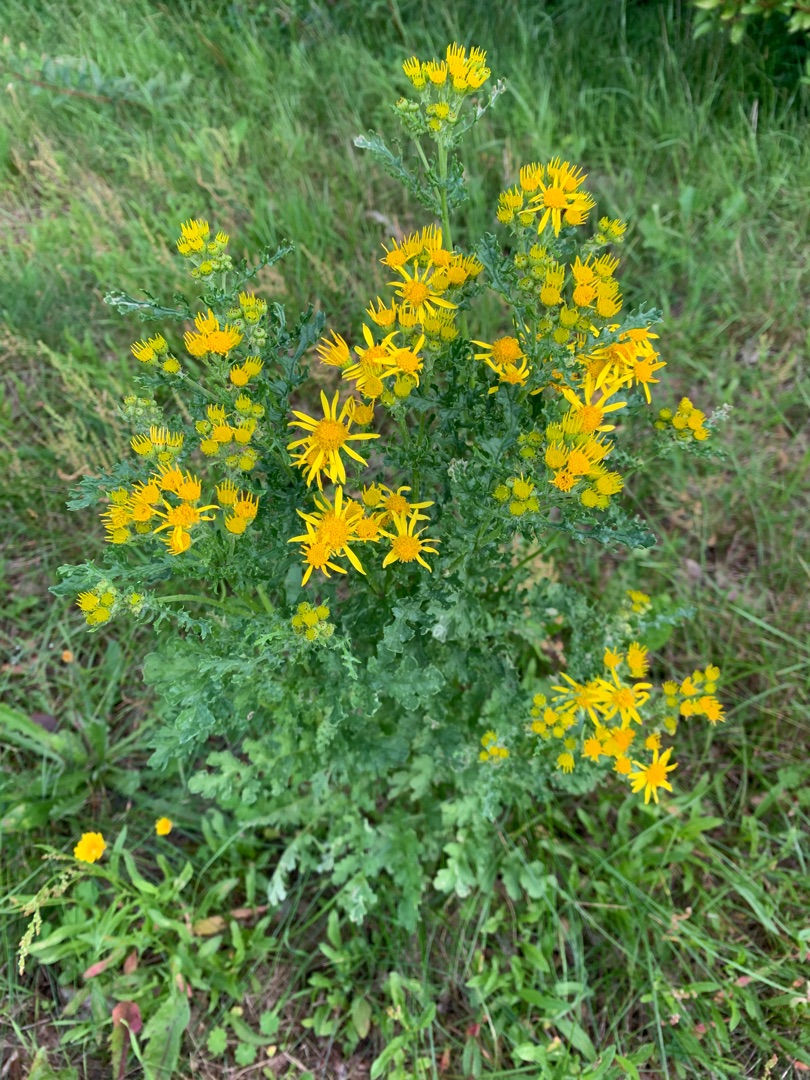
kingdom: Plantae
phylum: Tracheophyta
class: Magnoliopsida
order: Asterales
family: Asteraceae
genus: Jacobaea
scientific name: Jacobaea vulgaris
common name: Eng-brandbæger
